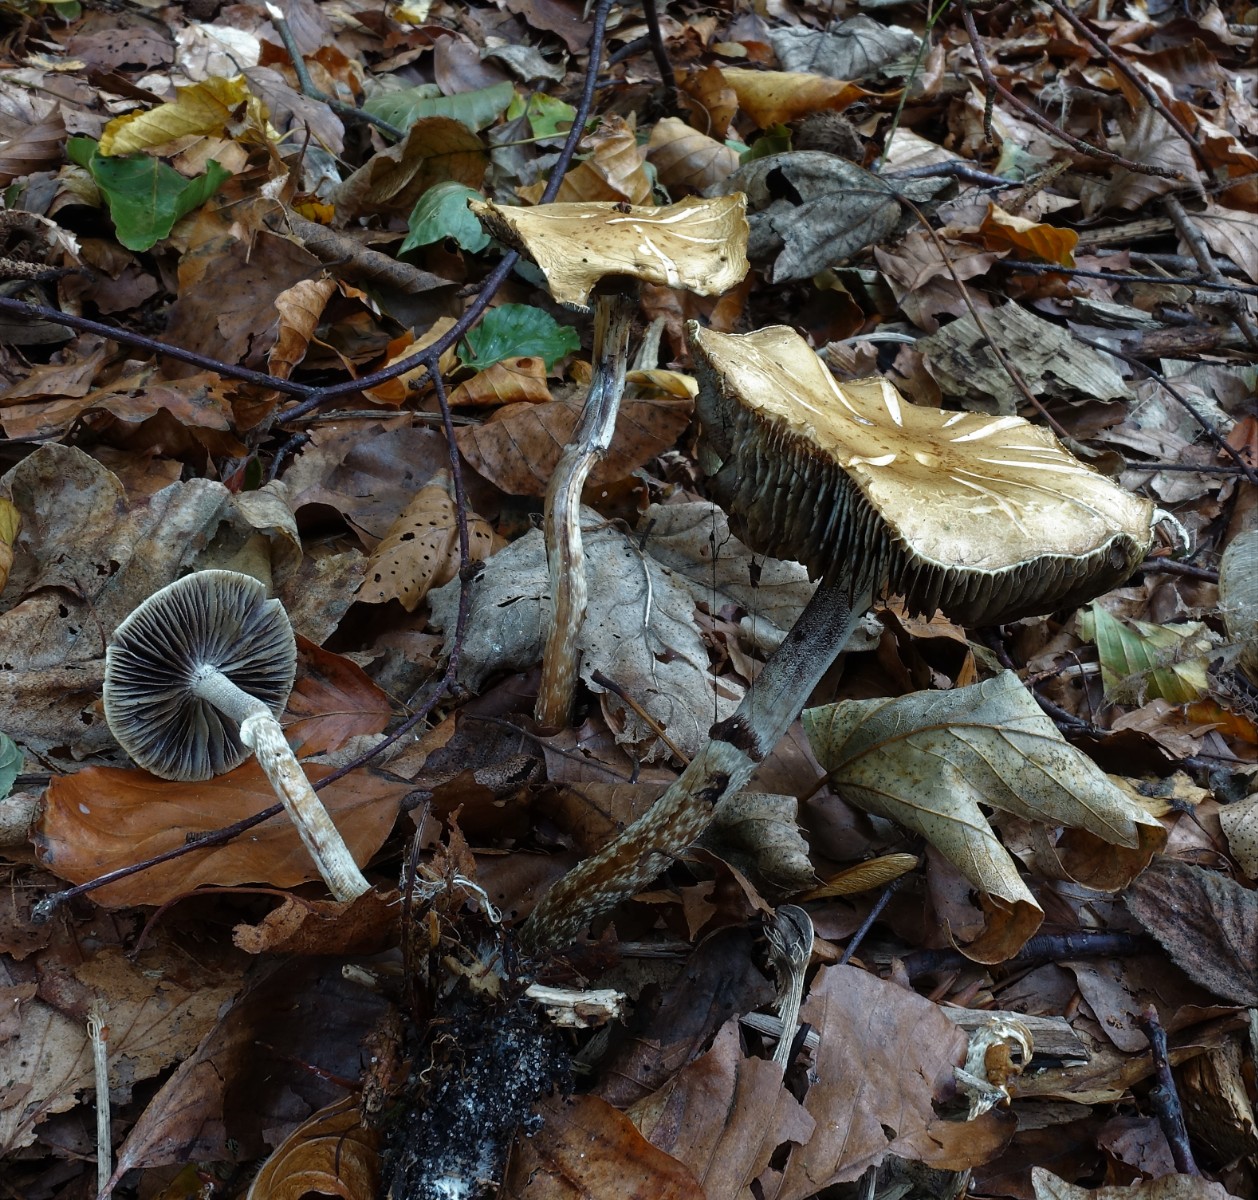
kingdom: Fungi
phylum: Basidiomycota
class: Agaricomycetes
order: Agaricales
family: Strophariaceae
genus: Leratiomyces
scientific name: Leratiomyces squamosus
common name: skællet bredblad
